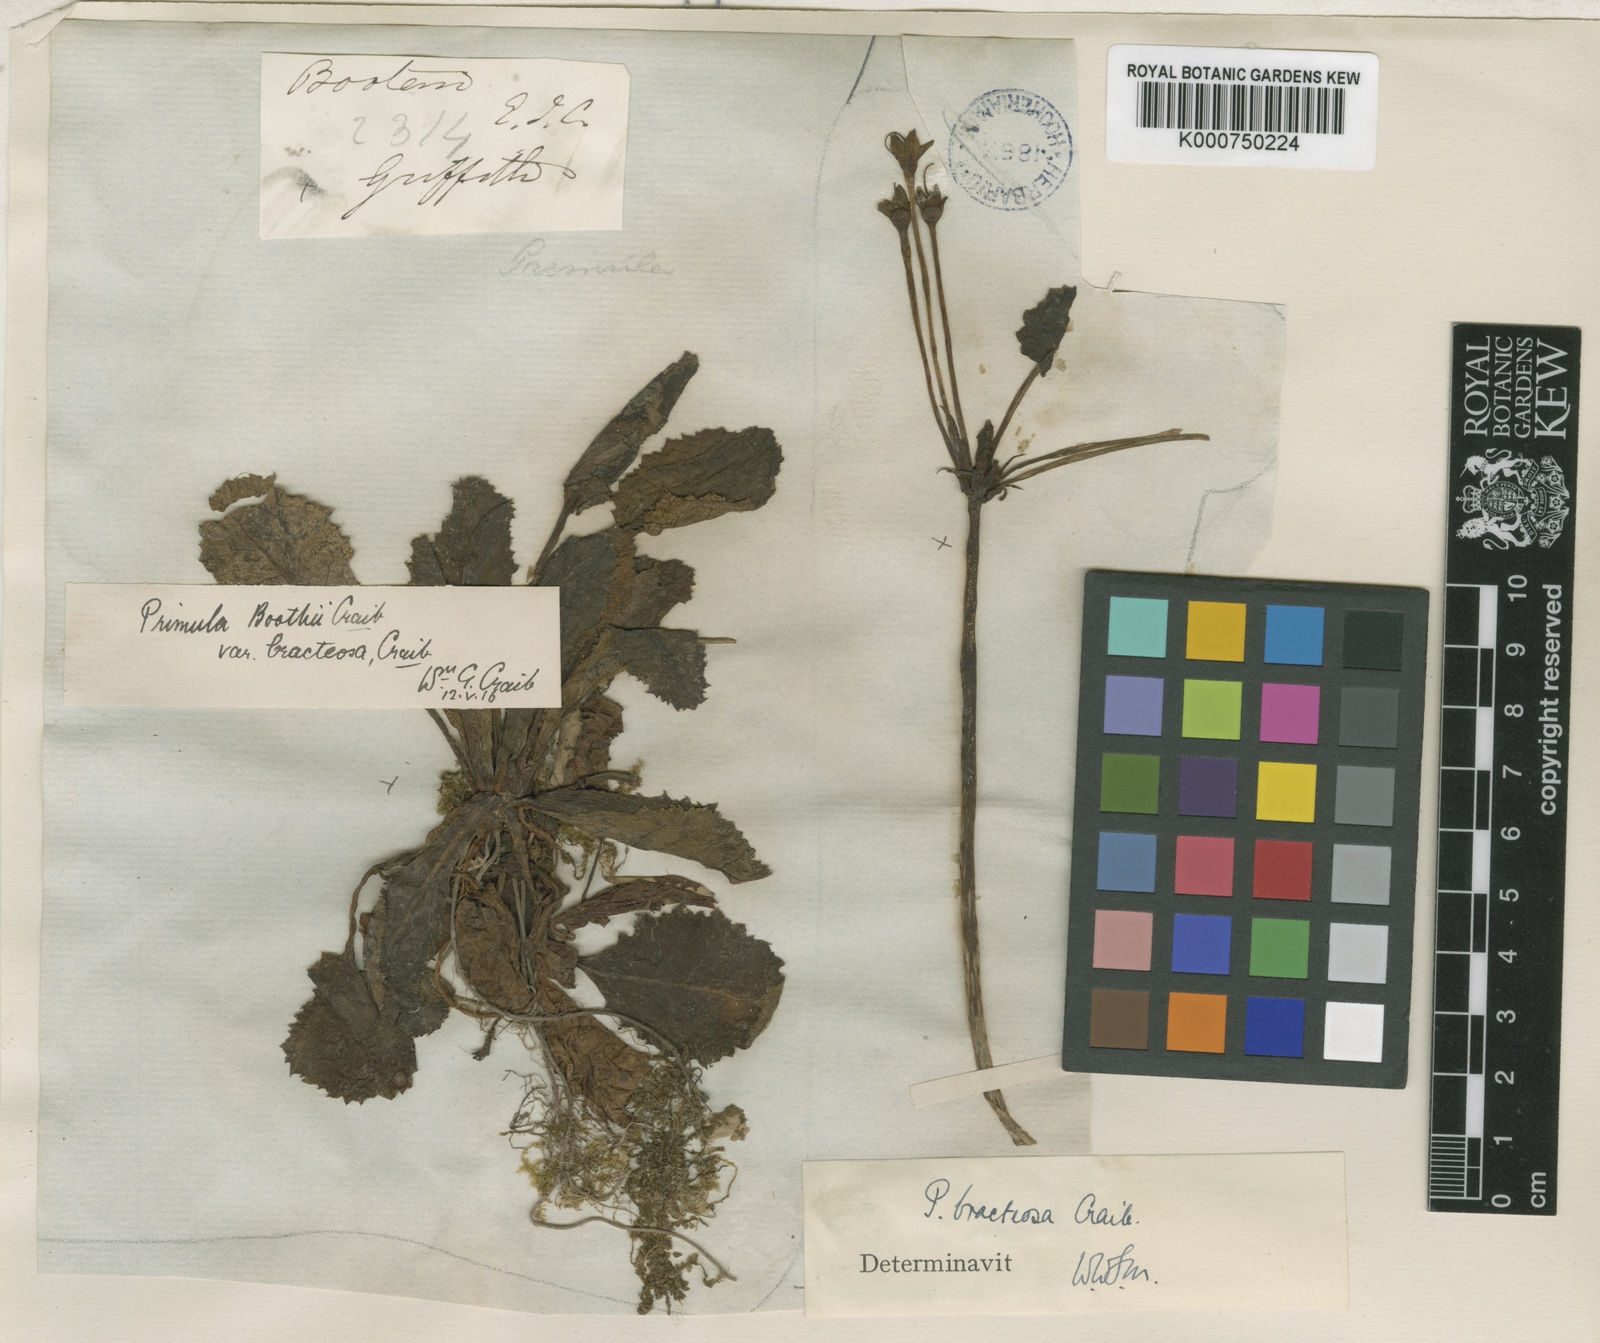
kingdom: Plantae
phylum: Tracheophyta
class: Magnoliopsida
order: Ericales
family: Primulaceae
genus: Primula
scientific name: Primula bracteosa
